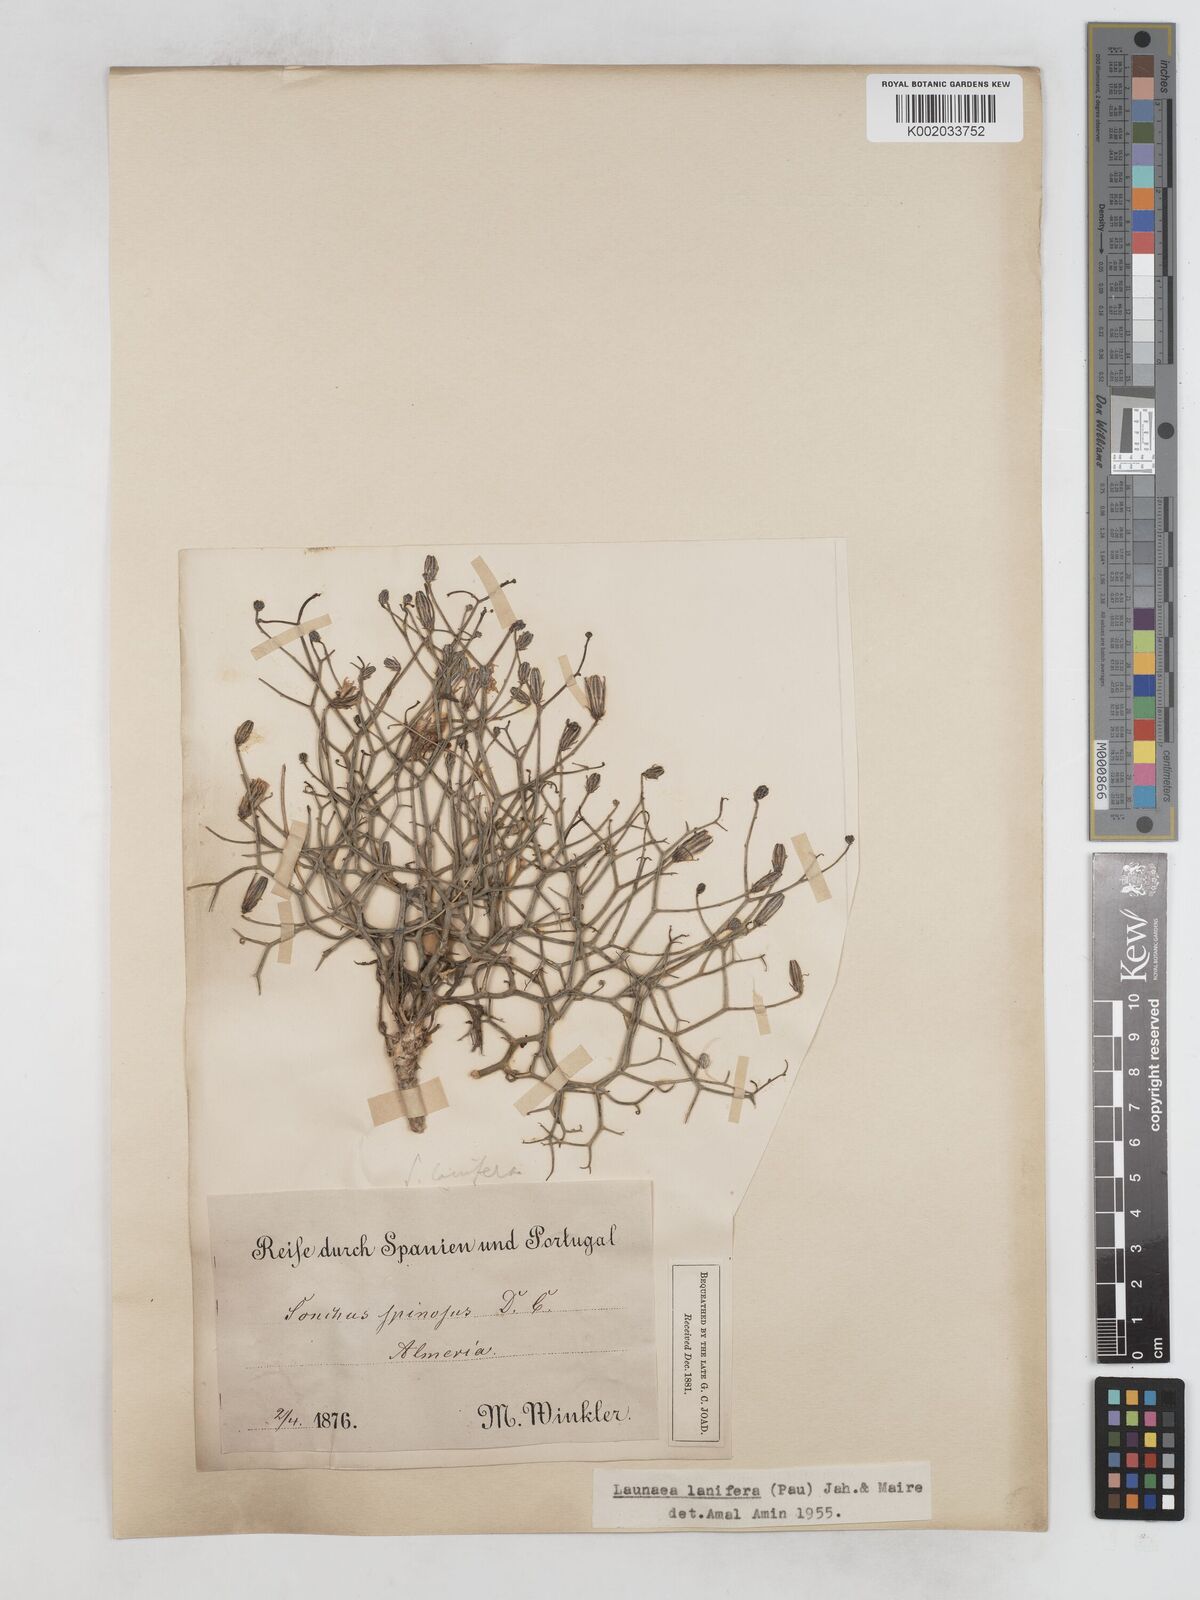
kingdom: Plantae
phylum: Tracheophyta
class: Magnoliopsida
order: Asterales
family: Asteraceae
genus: Launaea
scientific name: Launaea lanifera
